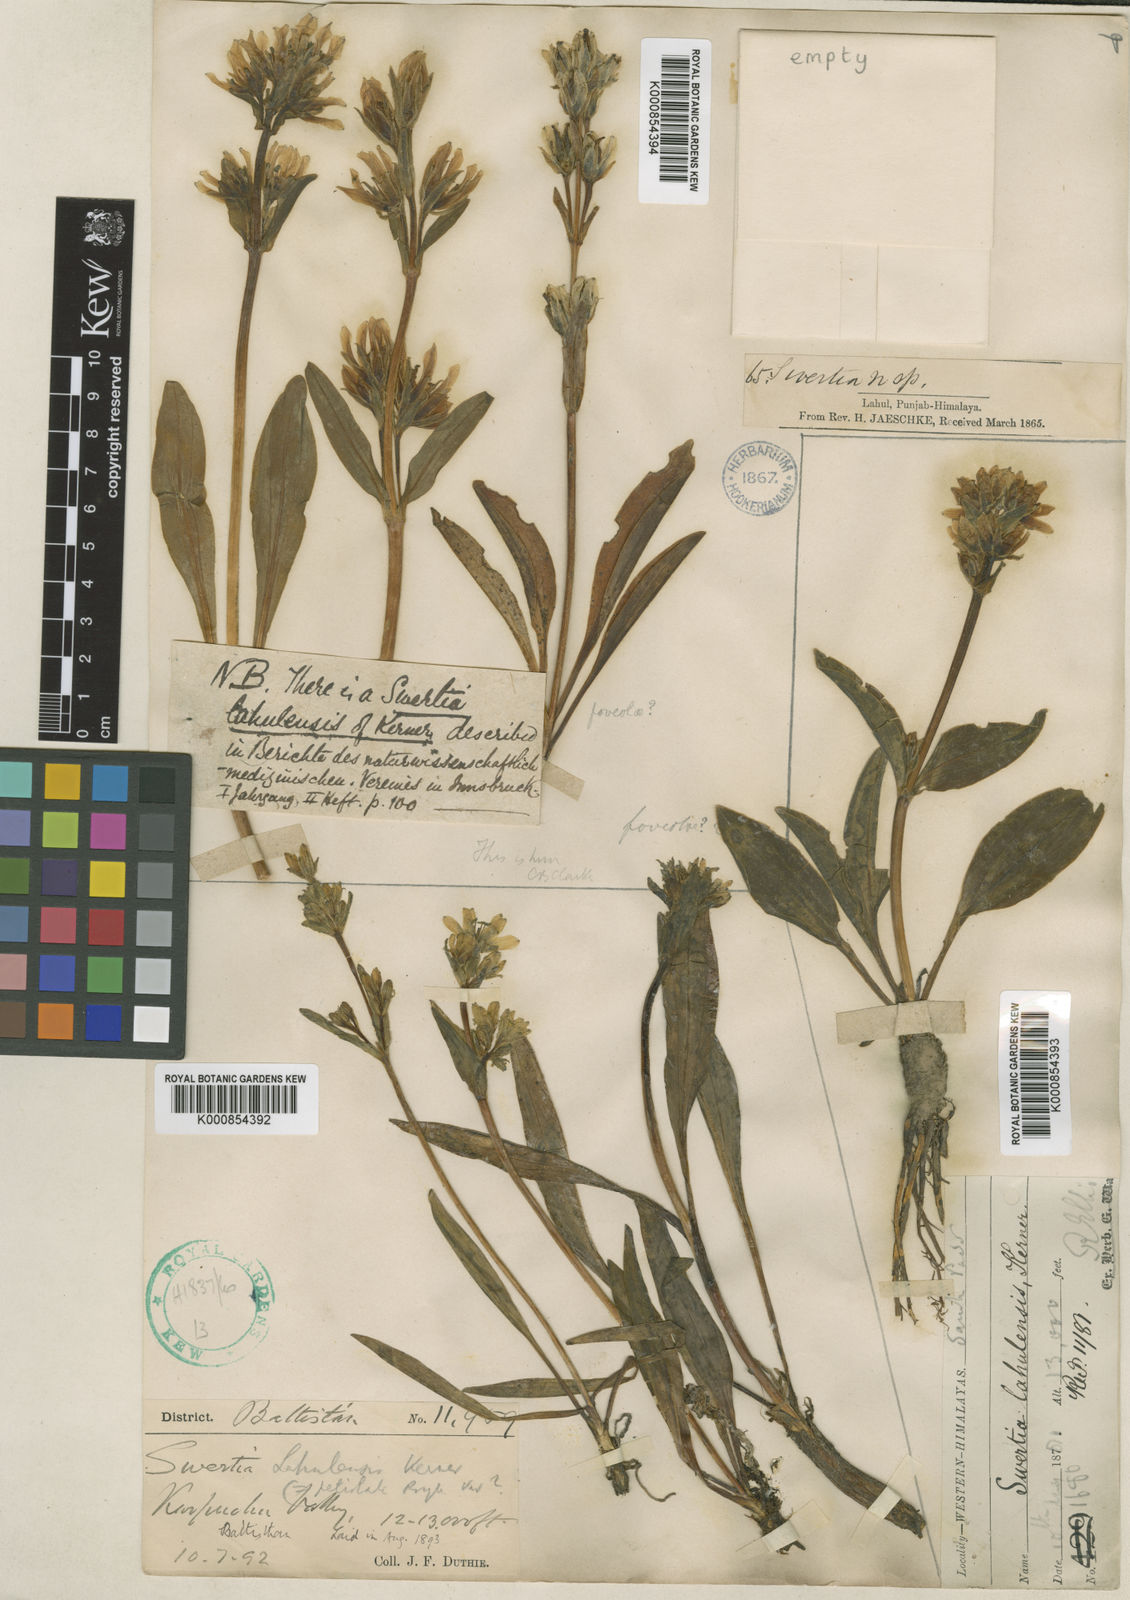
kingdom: Plantae
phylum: Tracheophyta
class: Magnoliopsida
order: Gentianales
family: Gentianaceae
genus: Swertia
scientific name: Swertia
